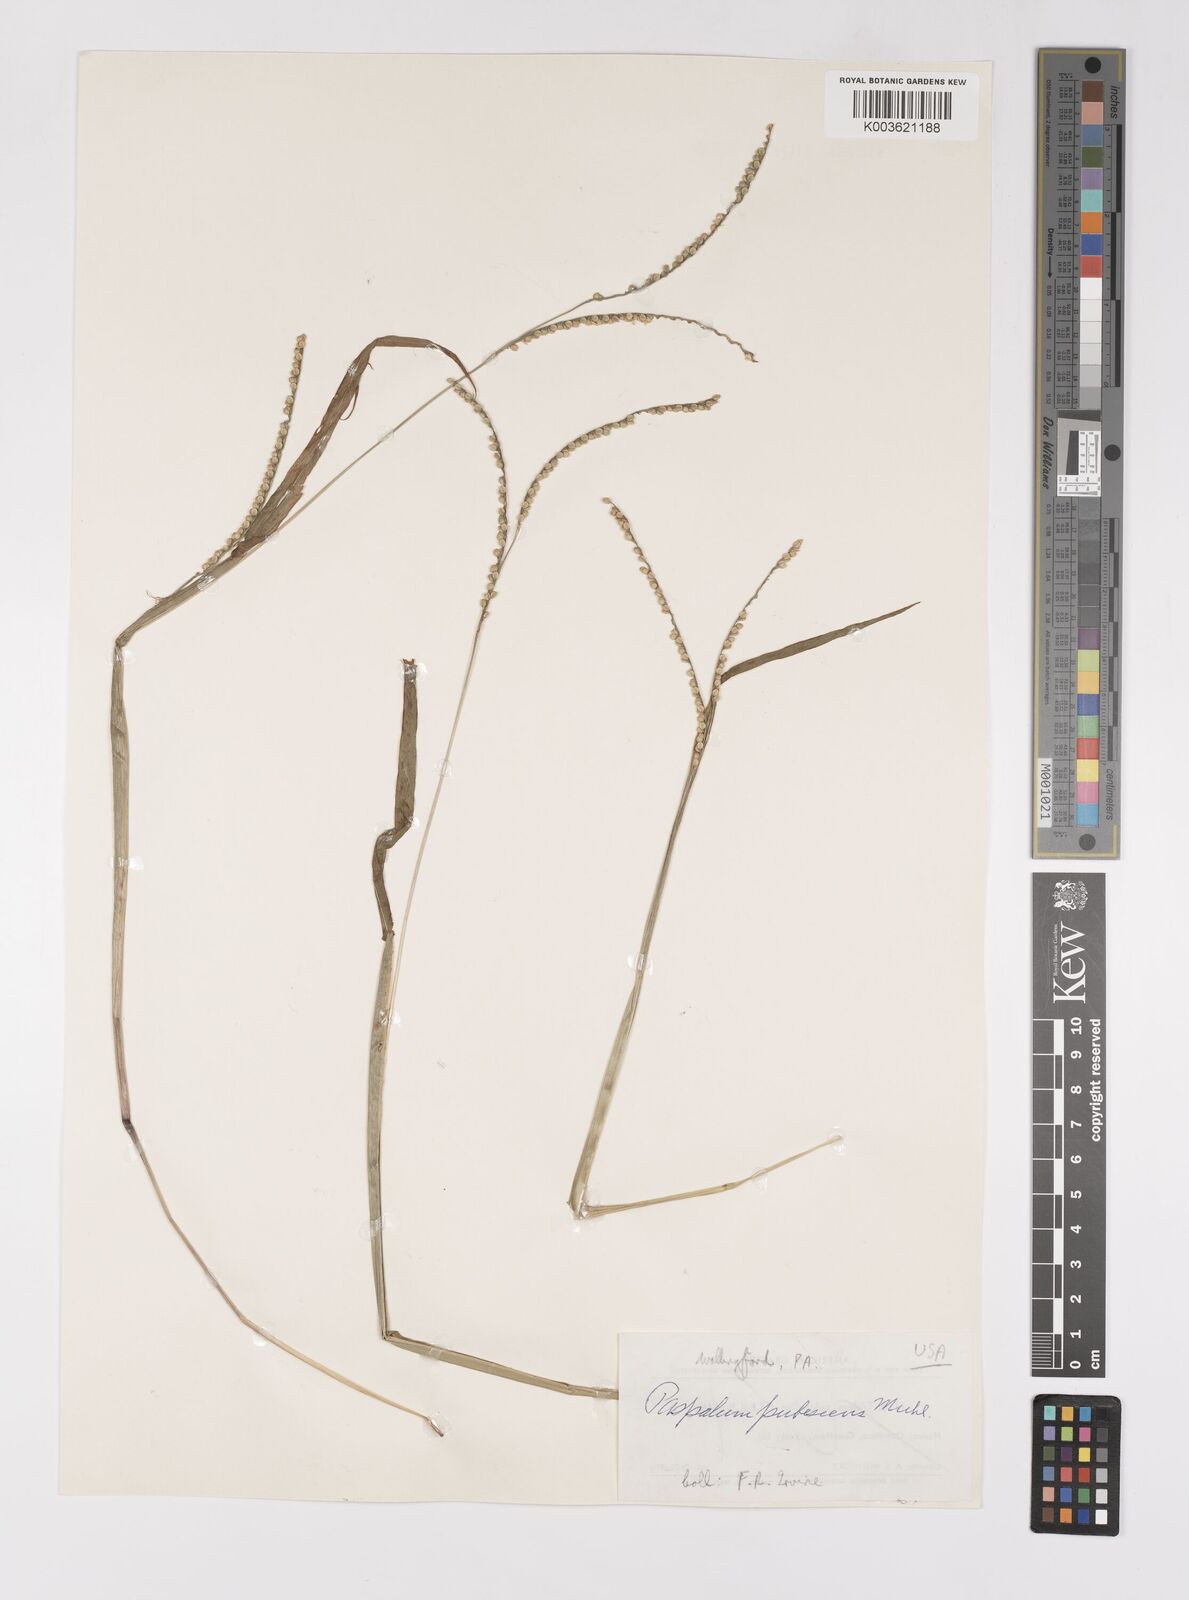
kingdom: Plantae
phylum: Tracheophyta
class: Liliopsida
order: Poales
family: Poaceae
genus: Paspalum
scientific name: Paspalum setaceum
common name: Slender paspalum
